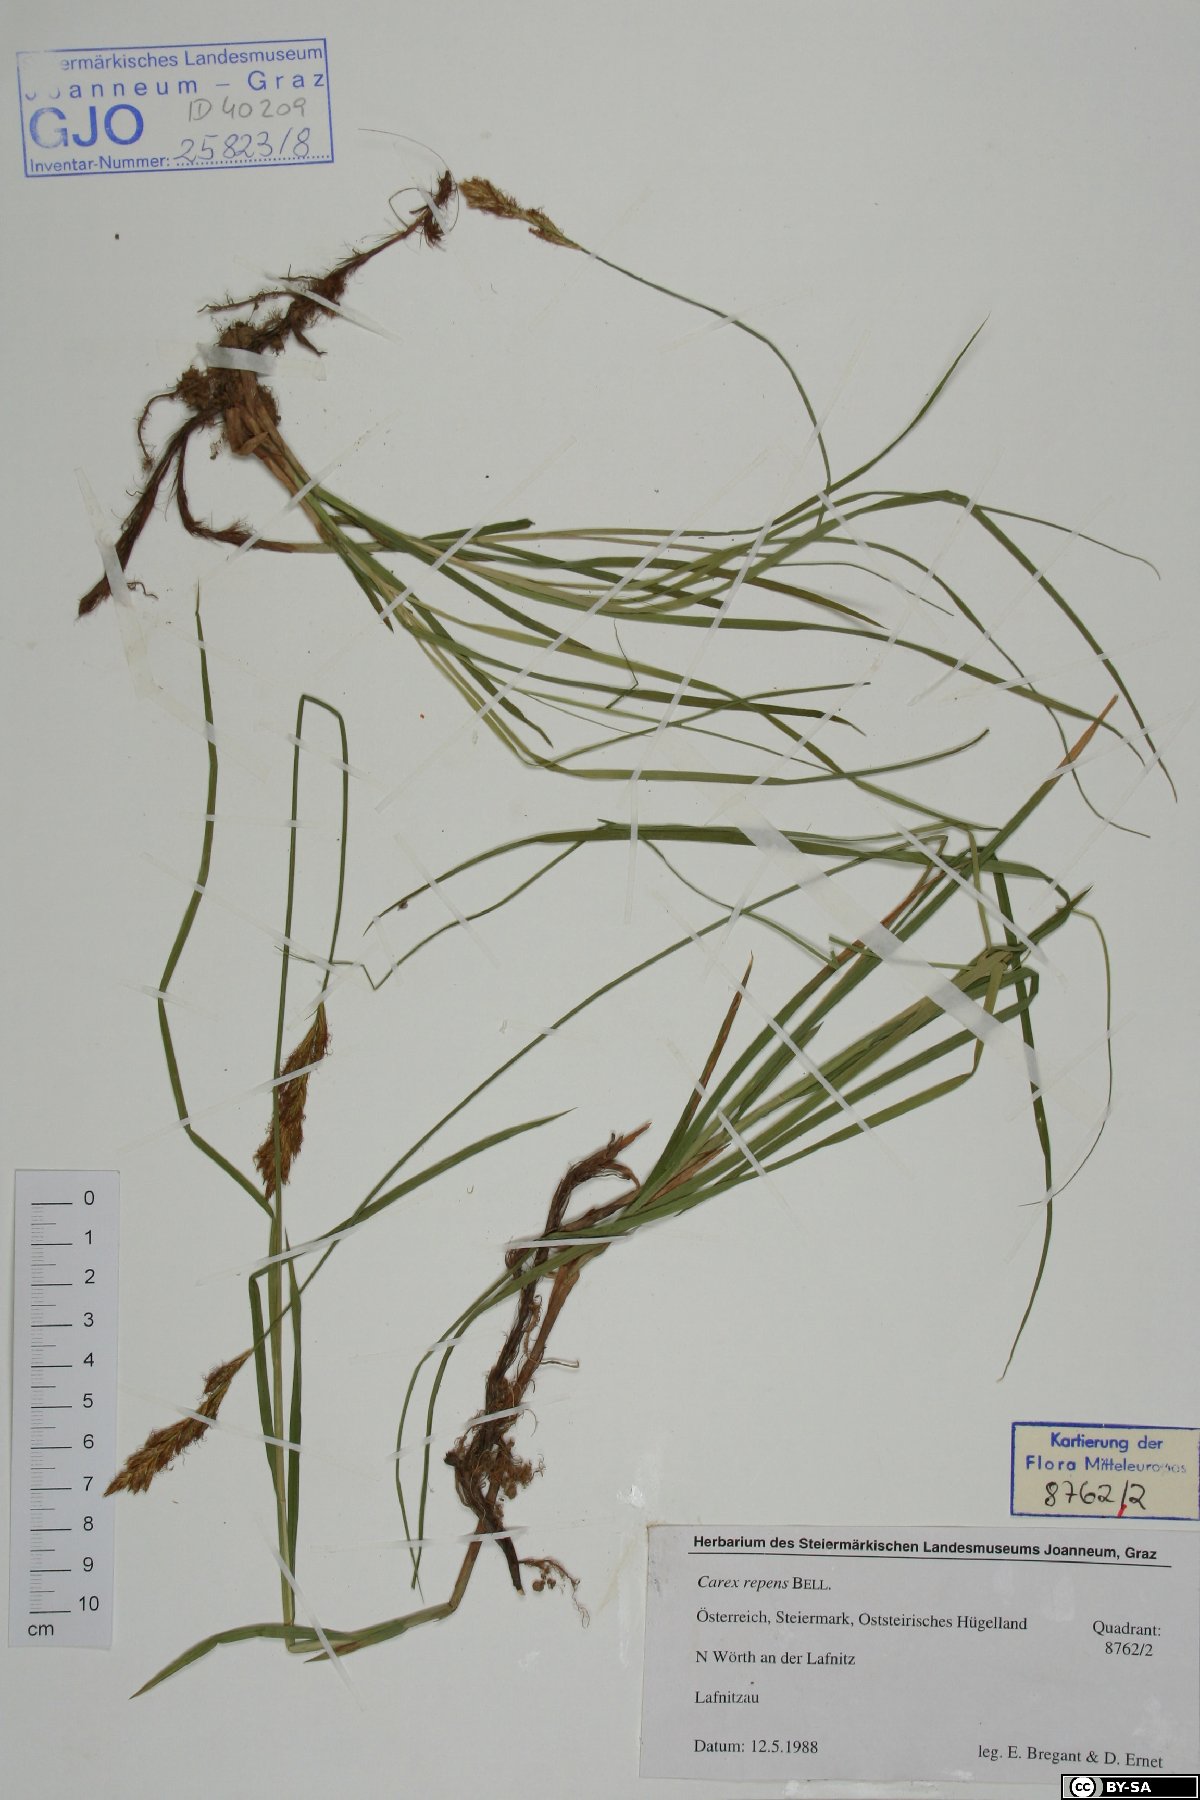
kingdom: Plantae
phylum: Tracheophyta
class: Liliopsida
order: Poales
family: Cyperaceae
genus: Carex
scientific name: Carex repens
